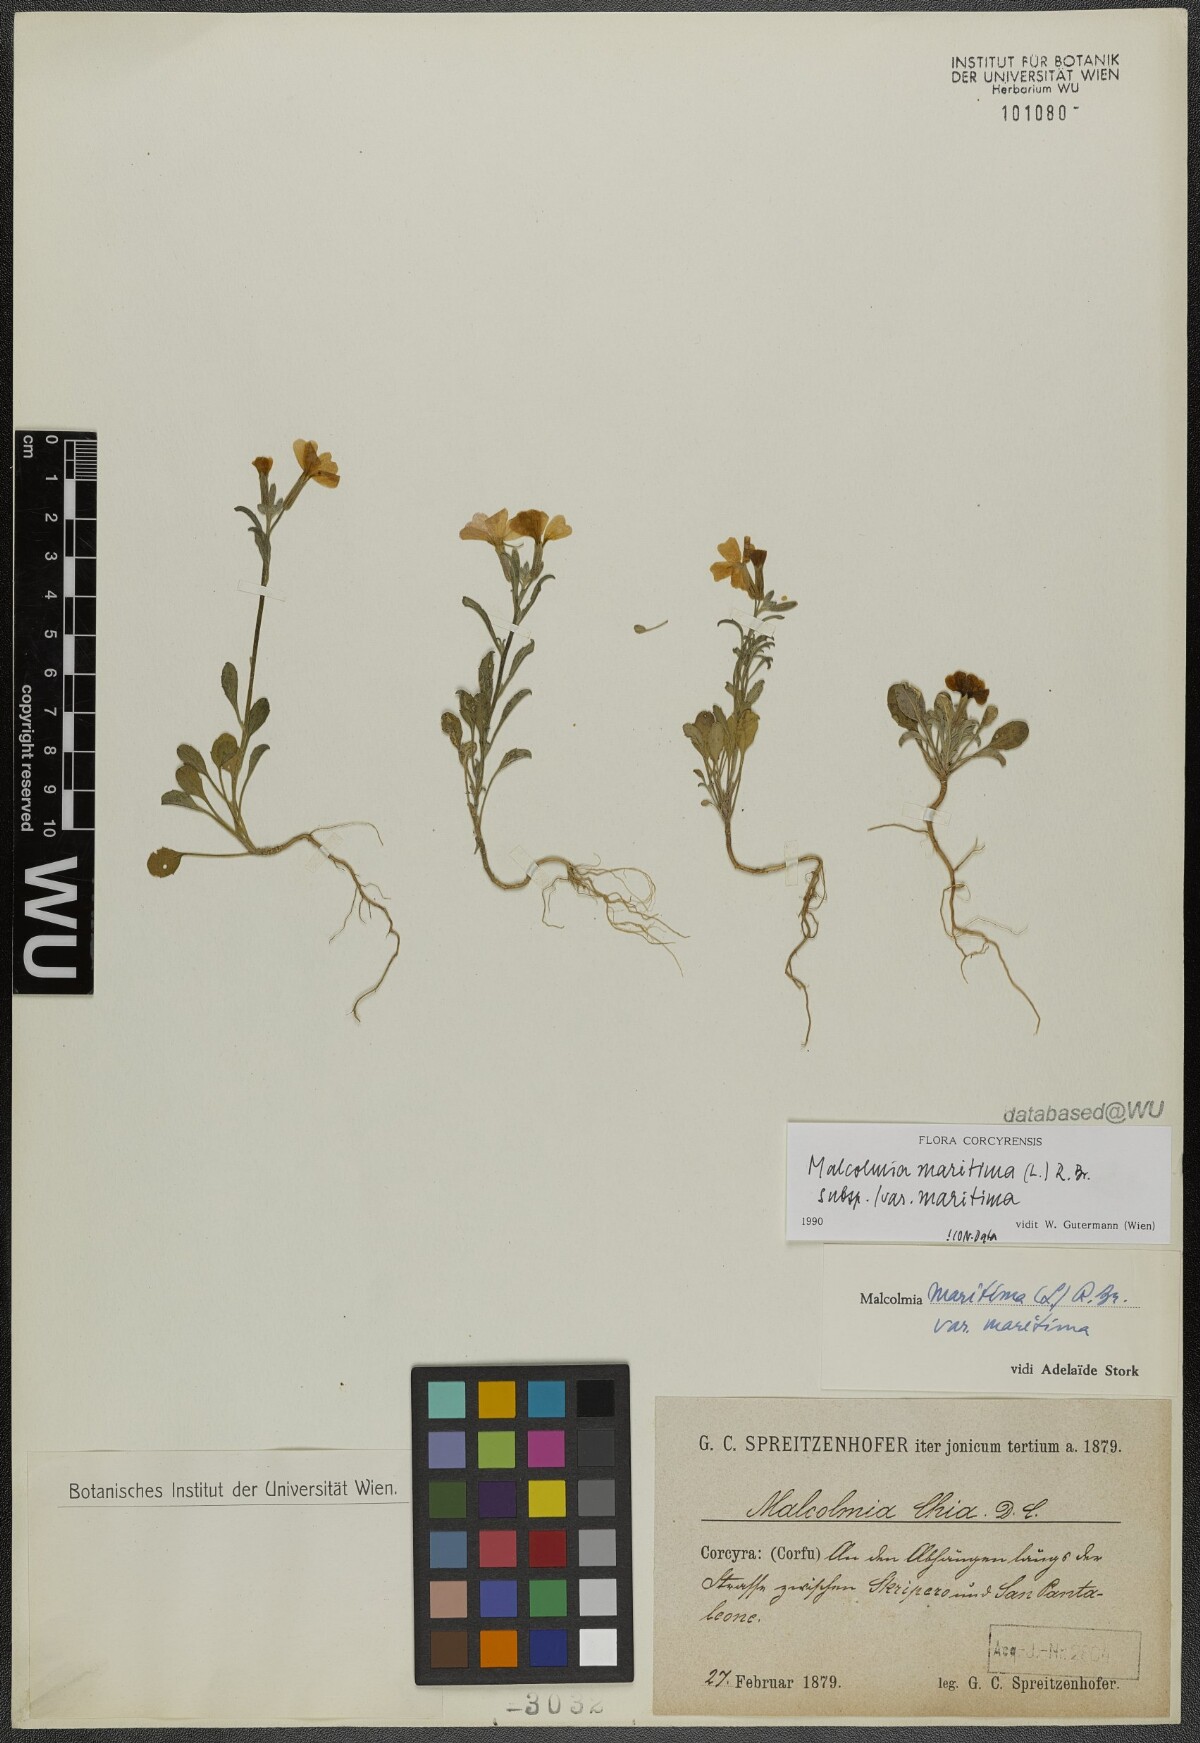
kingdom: Plantae
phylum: Tracheophyta
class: Magnoliopsida
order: Brassicales
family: Brassicaceae
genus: Malcolmia
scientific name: Malcolmia maritima
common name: Virginia stock
